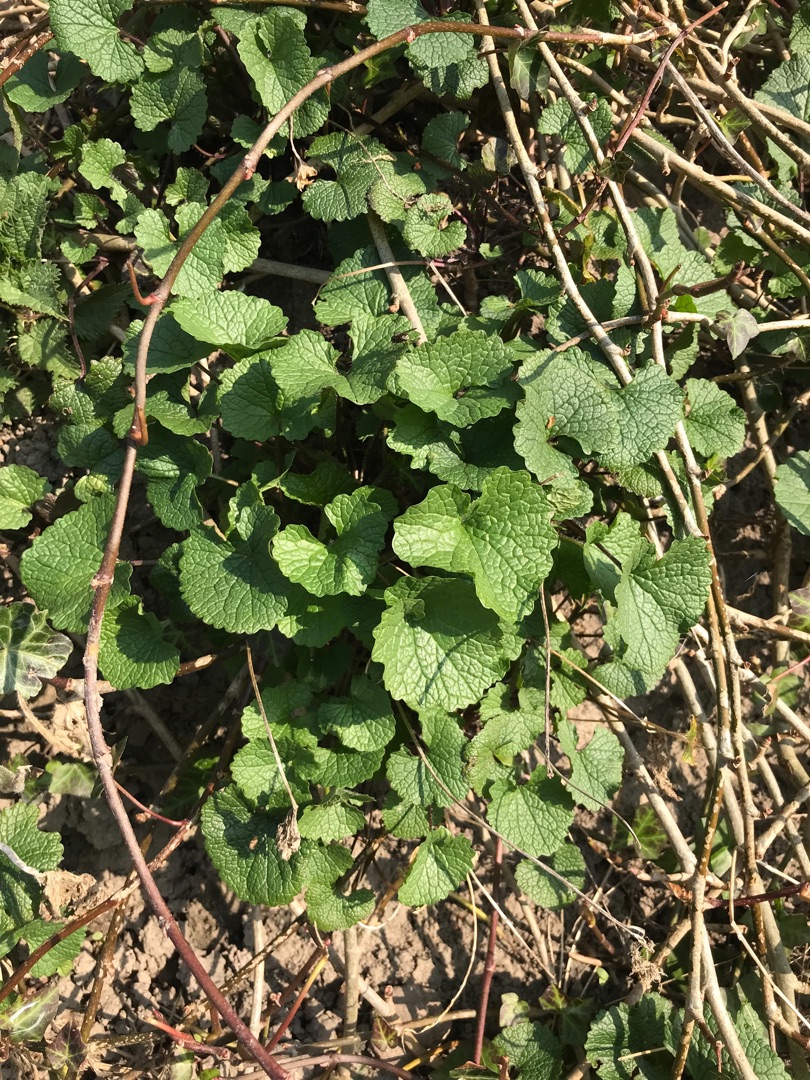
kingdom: Plantae
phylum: Tracheophyta
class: Magnoliopsida
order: Brassicales
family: Brassicaceae
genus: Alliaria
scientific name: Alliaria petiolata
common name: Løgkarse
